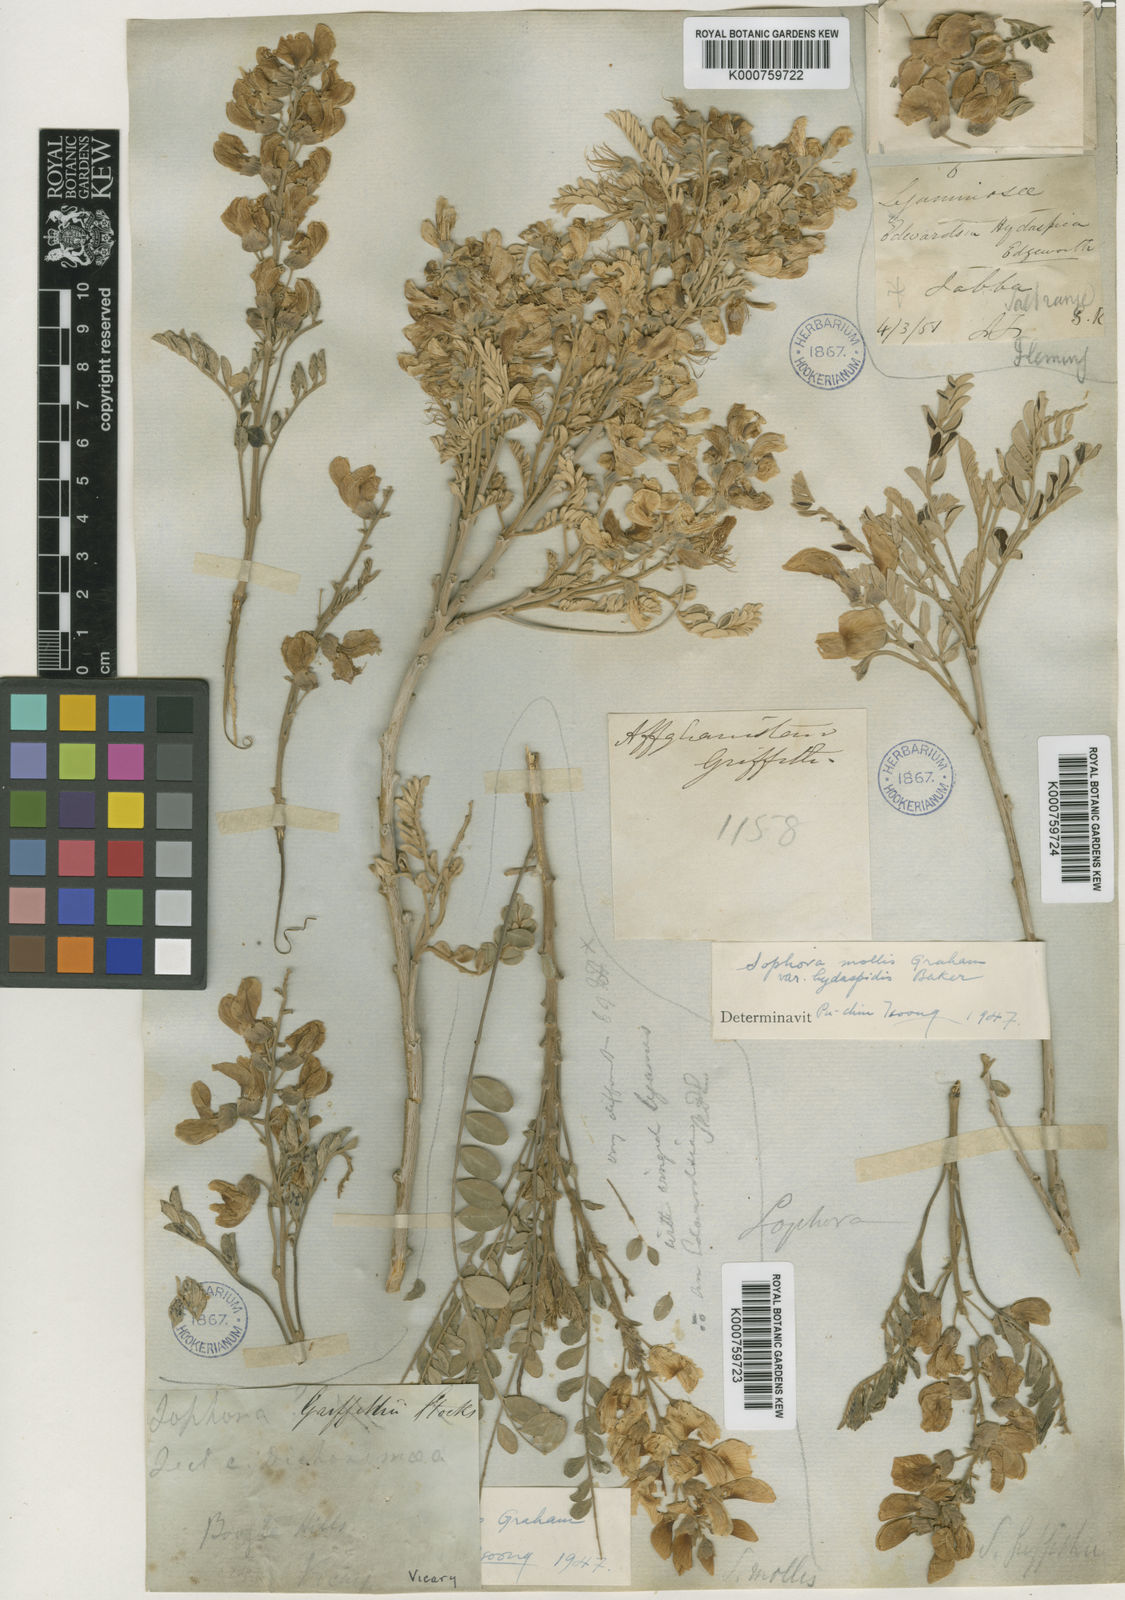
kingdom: Plantae
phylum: Tracheophyta
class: Magnoliopsida
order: Fabales
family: Fabaceae
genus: Sophora
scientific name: Sophora mollis
